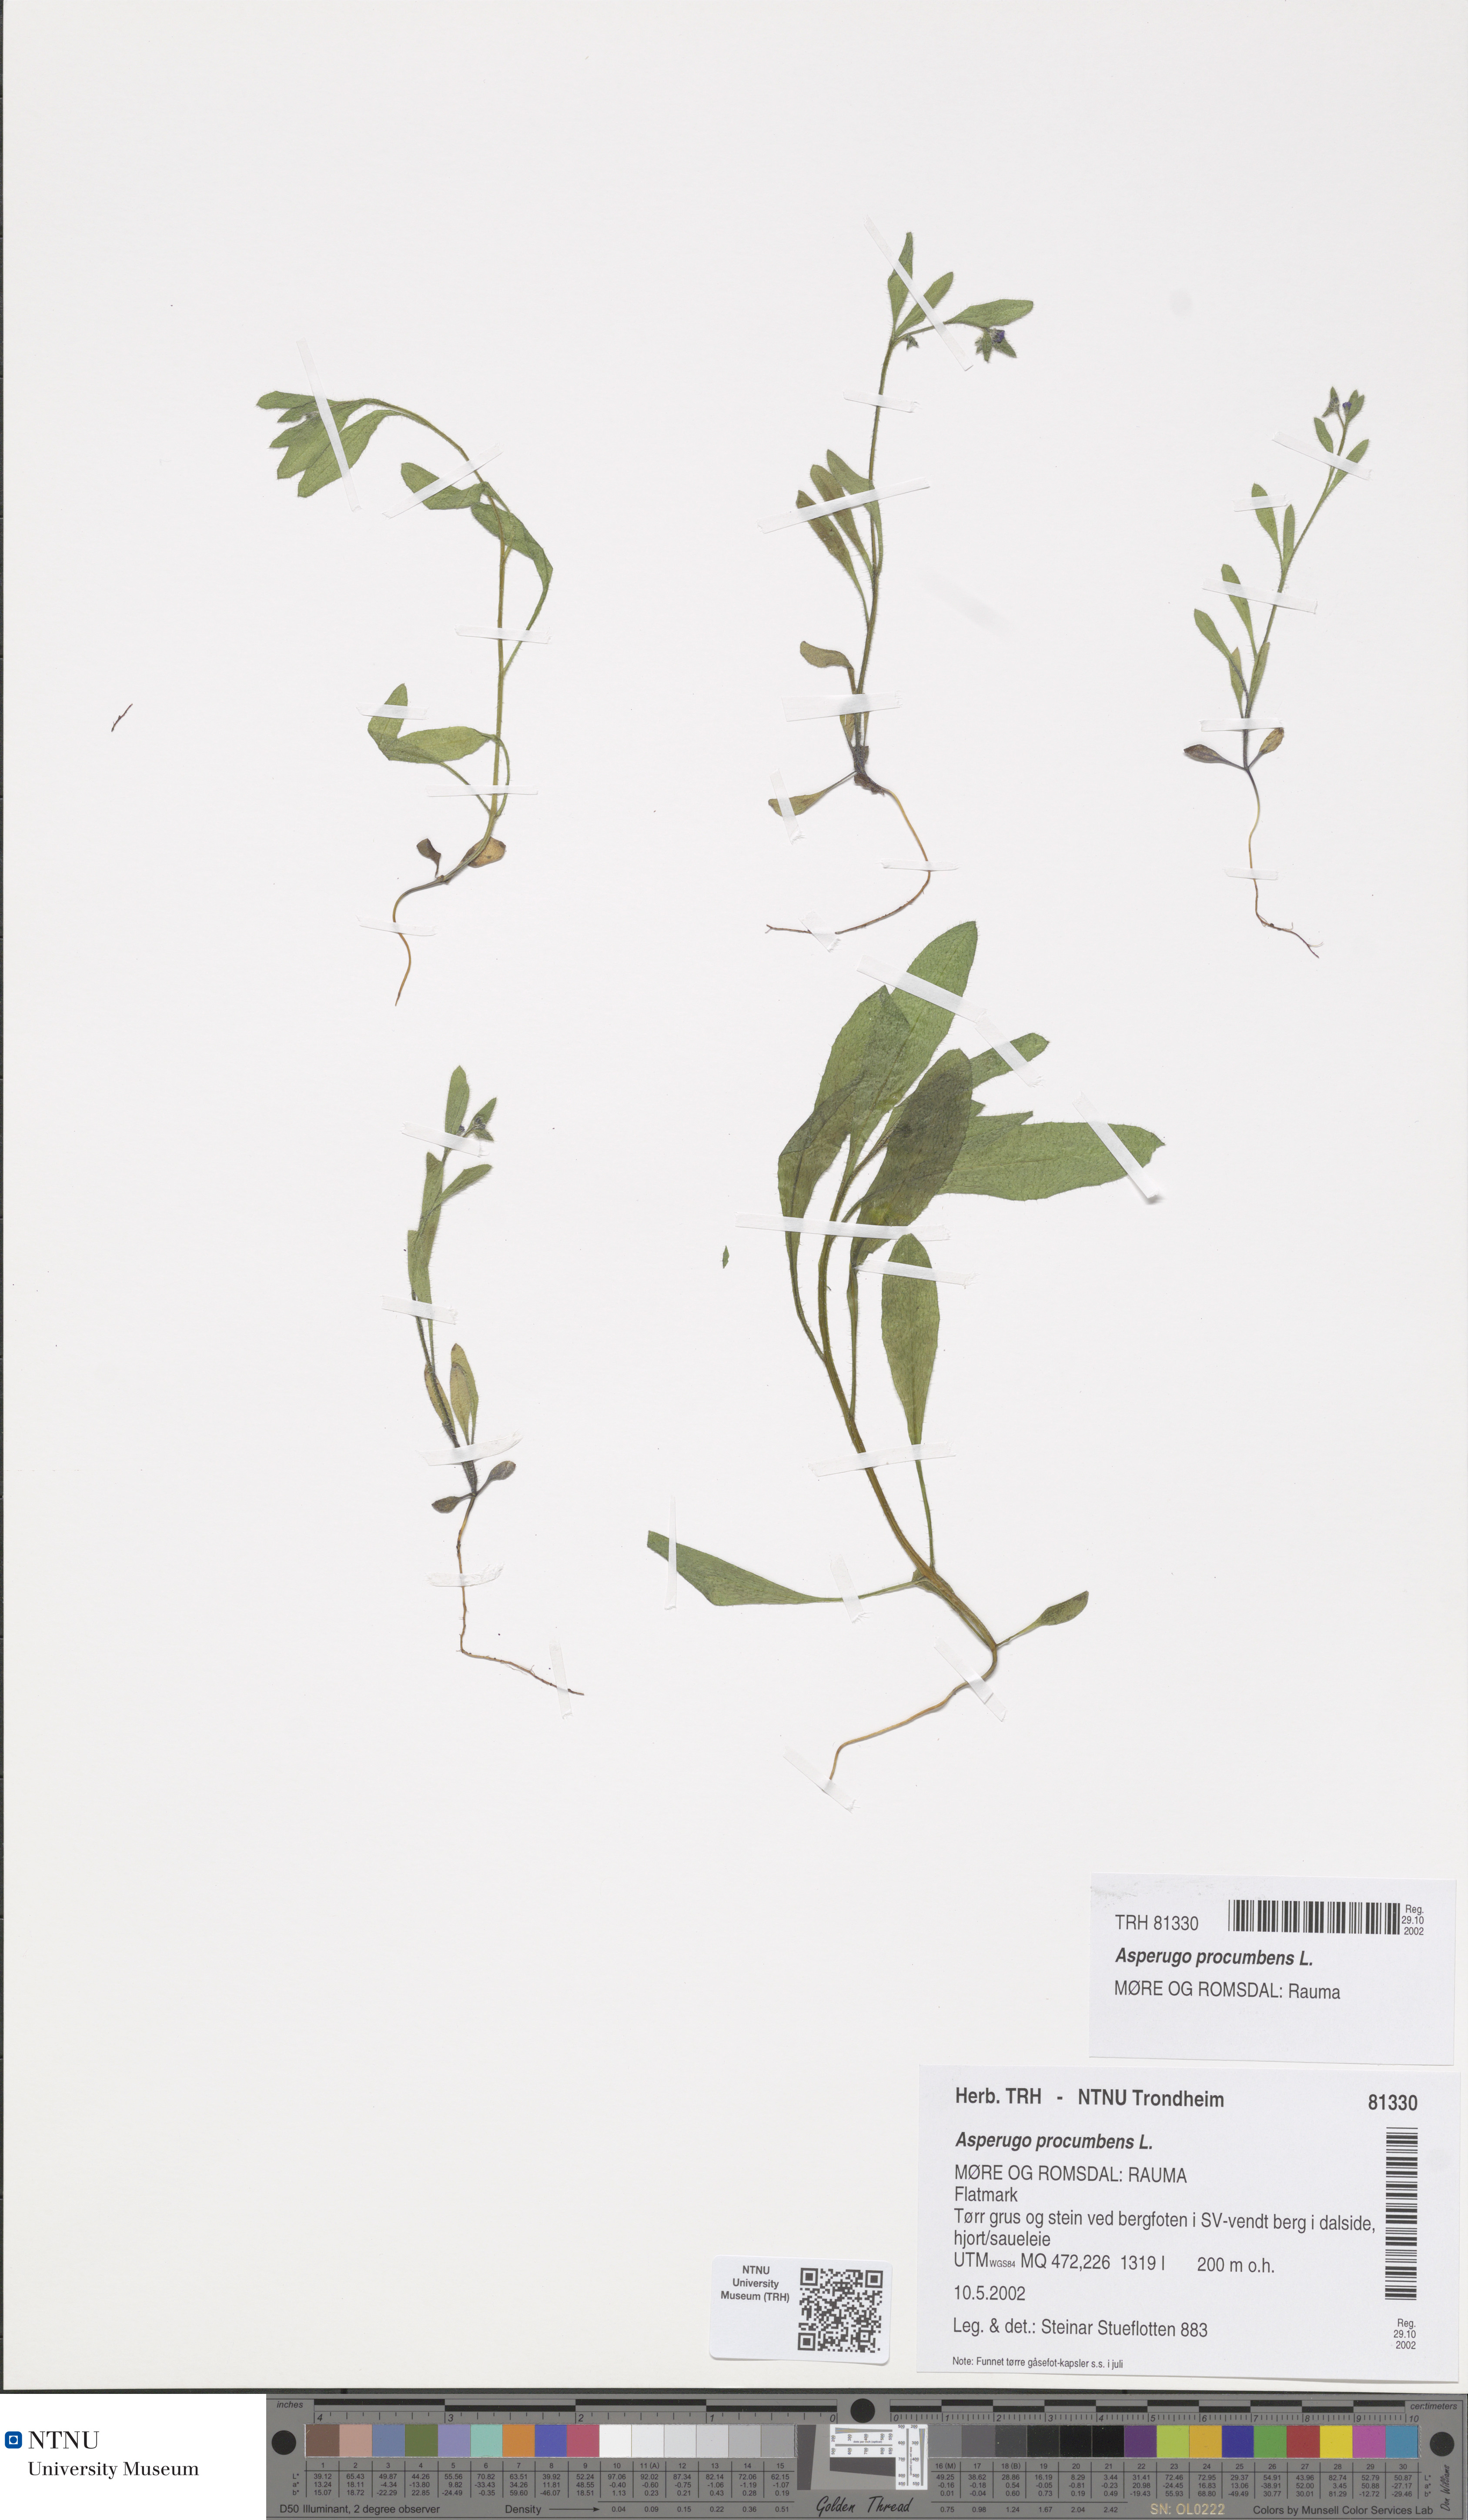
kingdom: Plantae
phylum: Tracheophyta
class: Magnoliopsida
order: Boraginales
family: Boraginaceae
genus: Asperugo
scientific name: Asperugo procumbens
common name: Madwort
